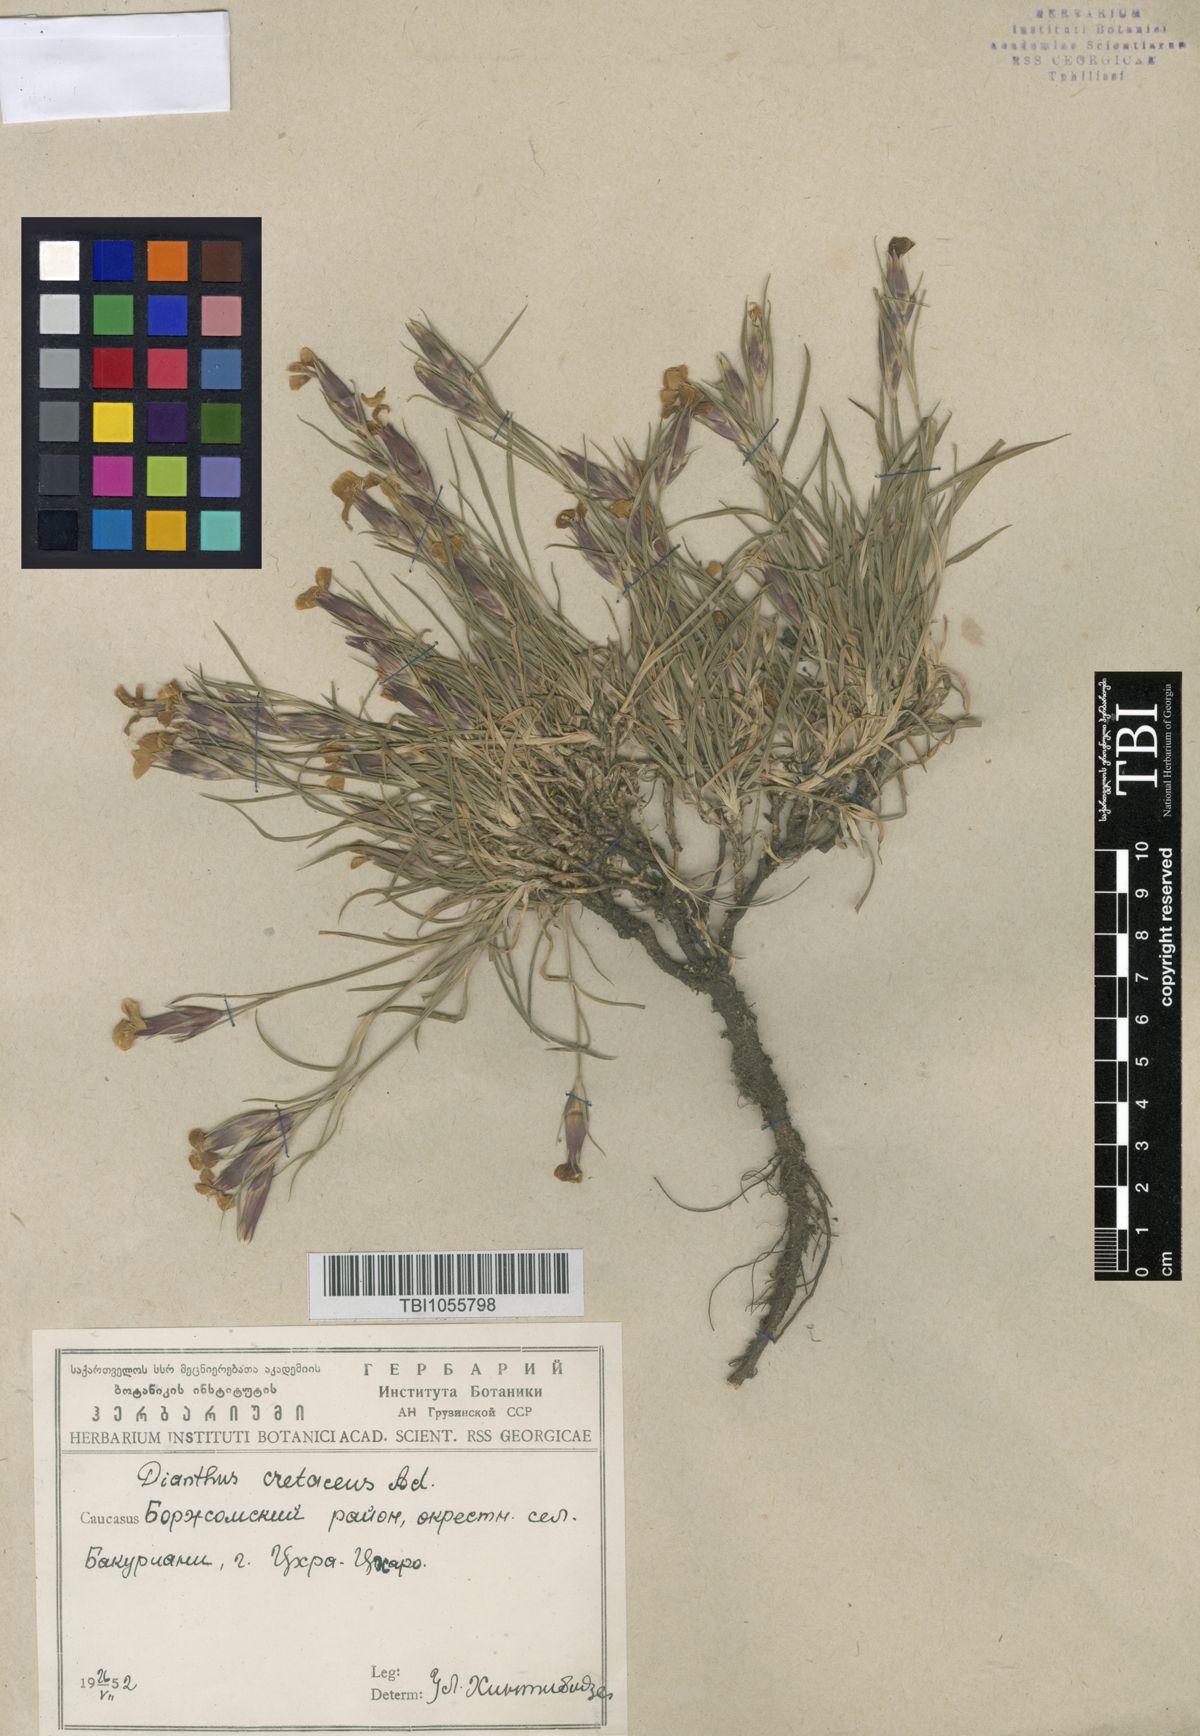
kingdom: Plantae
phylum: Tracheophyta
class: Magnoliopsida
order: Caryophyllales
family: Caryophyllaceae
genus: Dianthus
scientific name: Dianthus cretaceus
